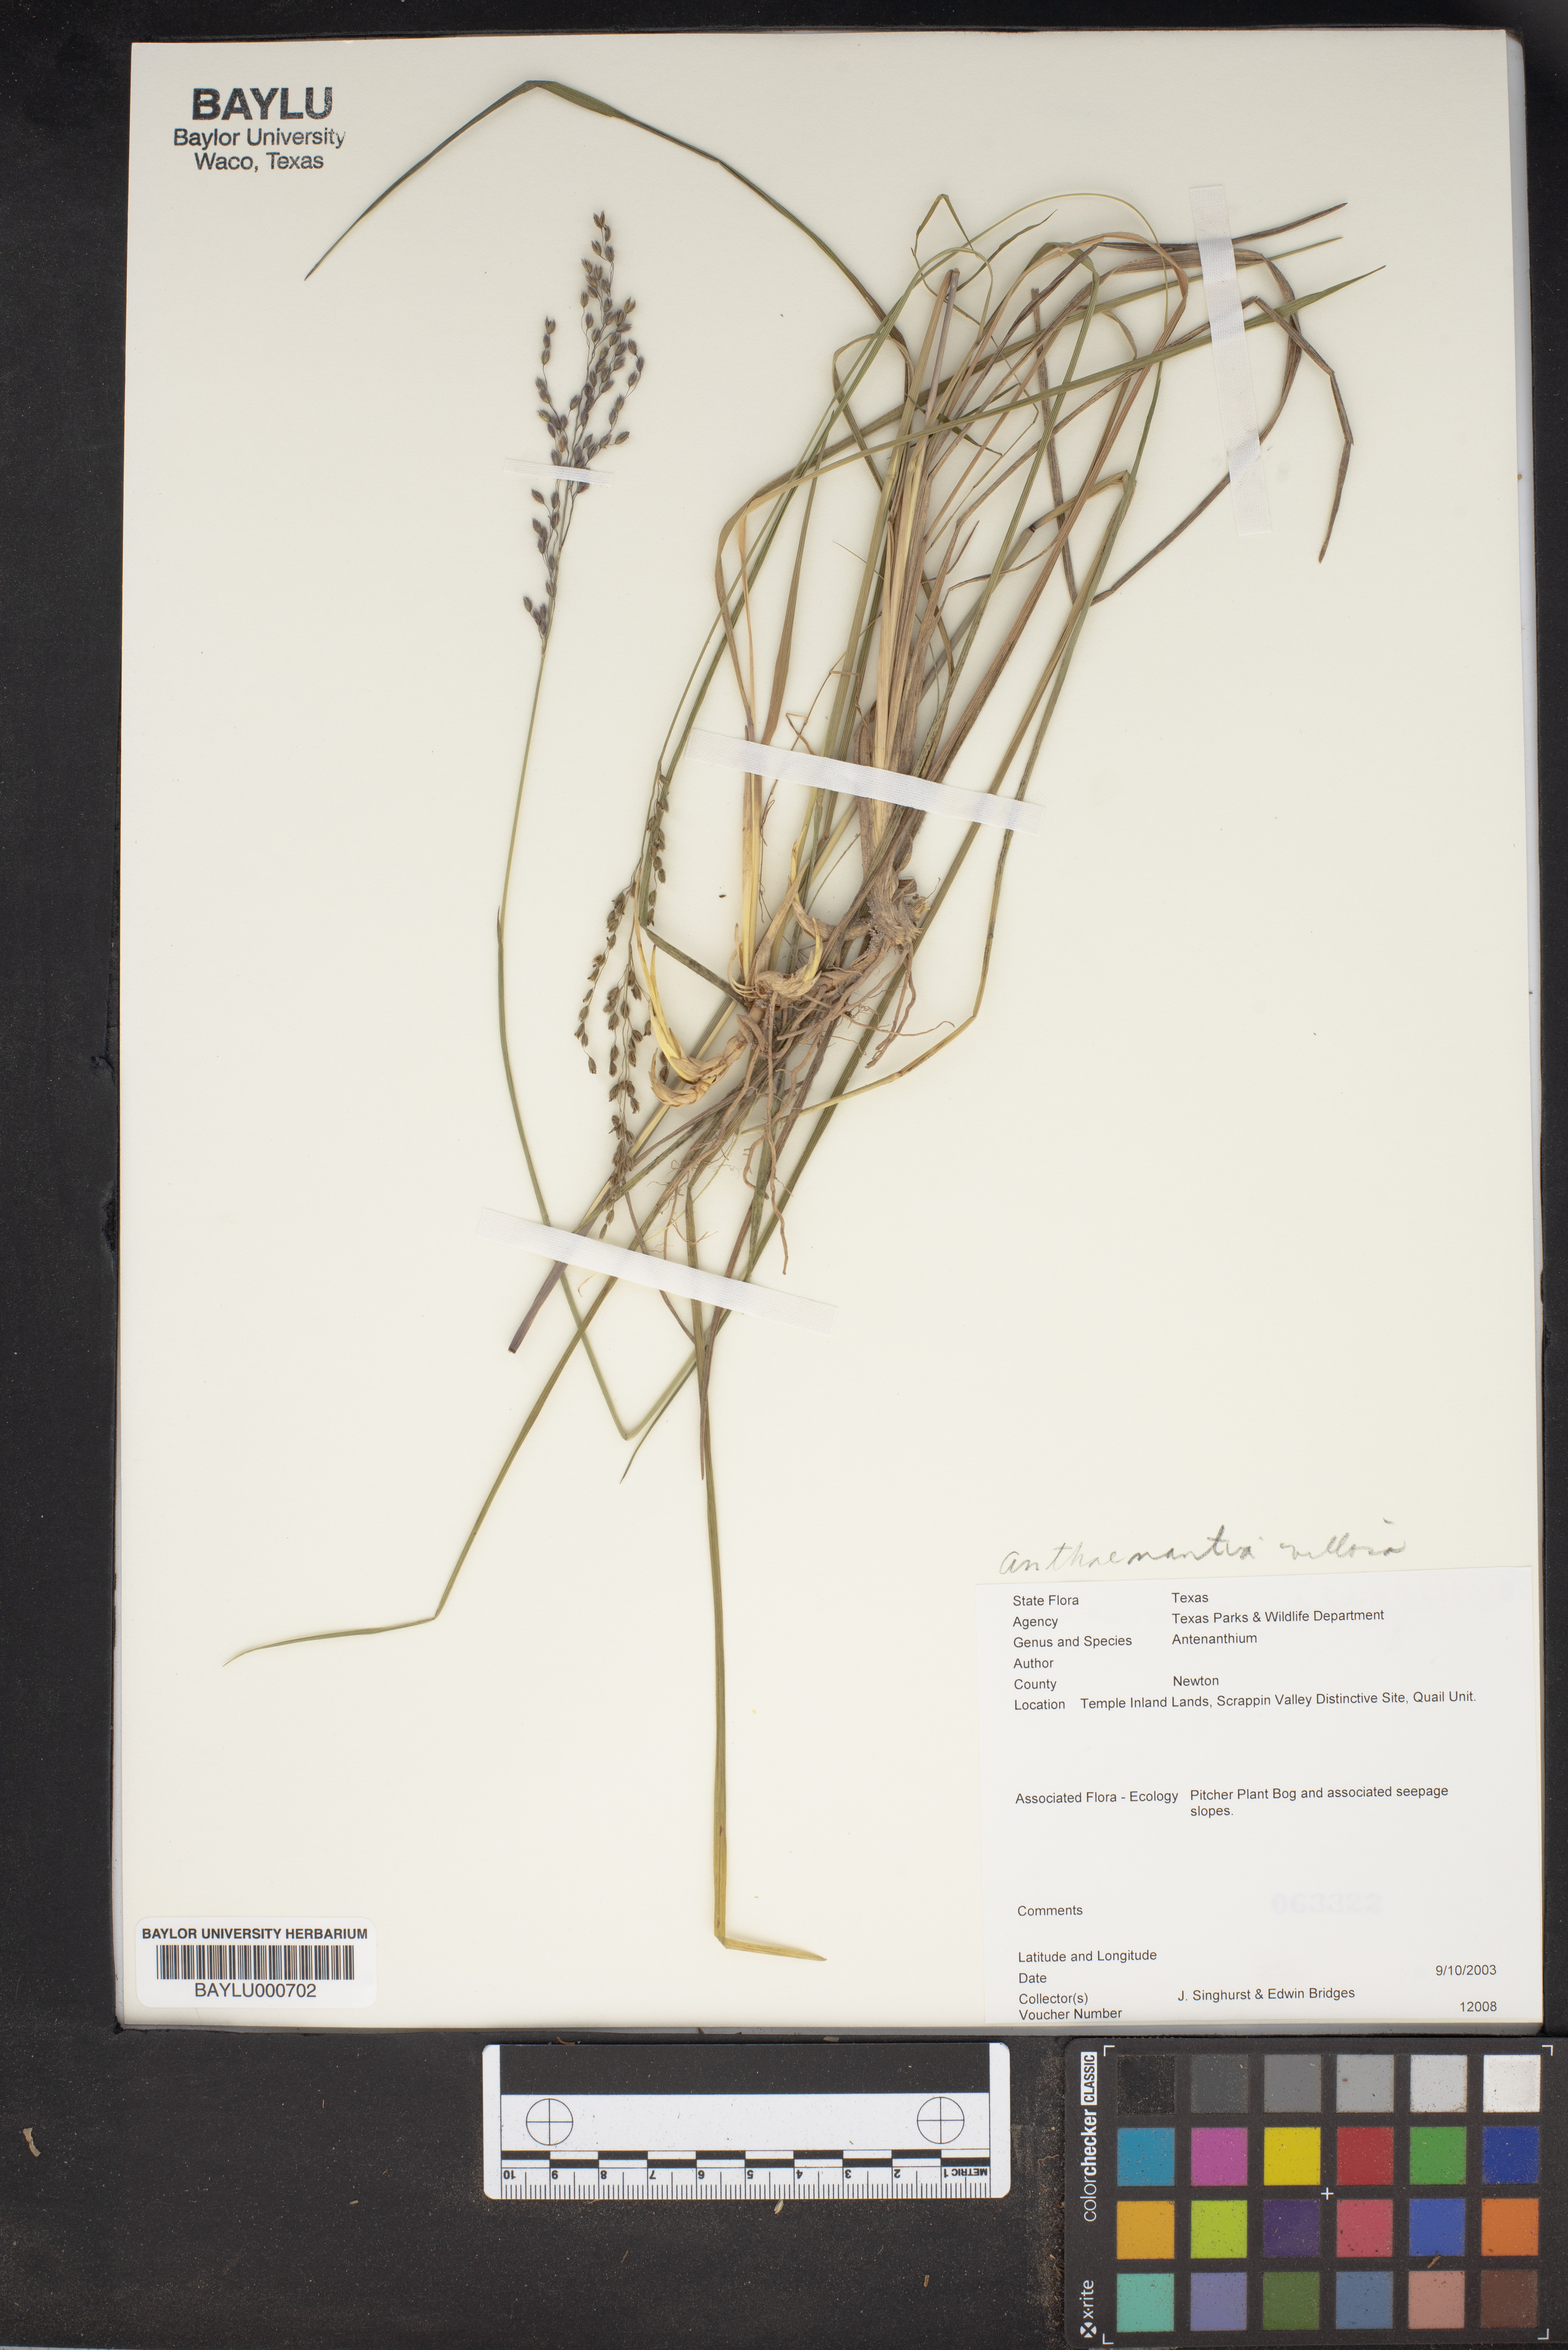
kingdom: Plantae
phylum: Tracheophyta
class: Liliopsida
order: Poales
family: Poaceae
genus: Anthenantia
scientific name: Anthenantia villosa
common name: Green silkyscale
